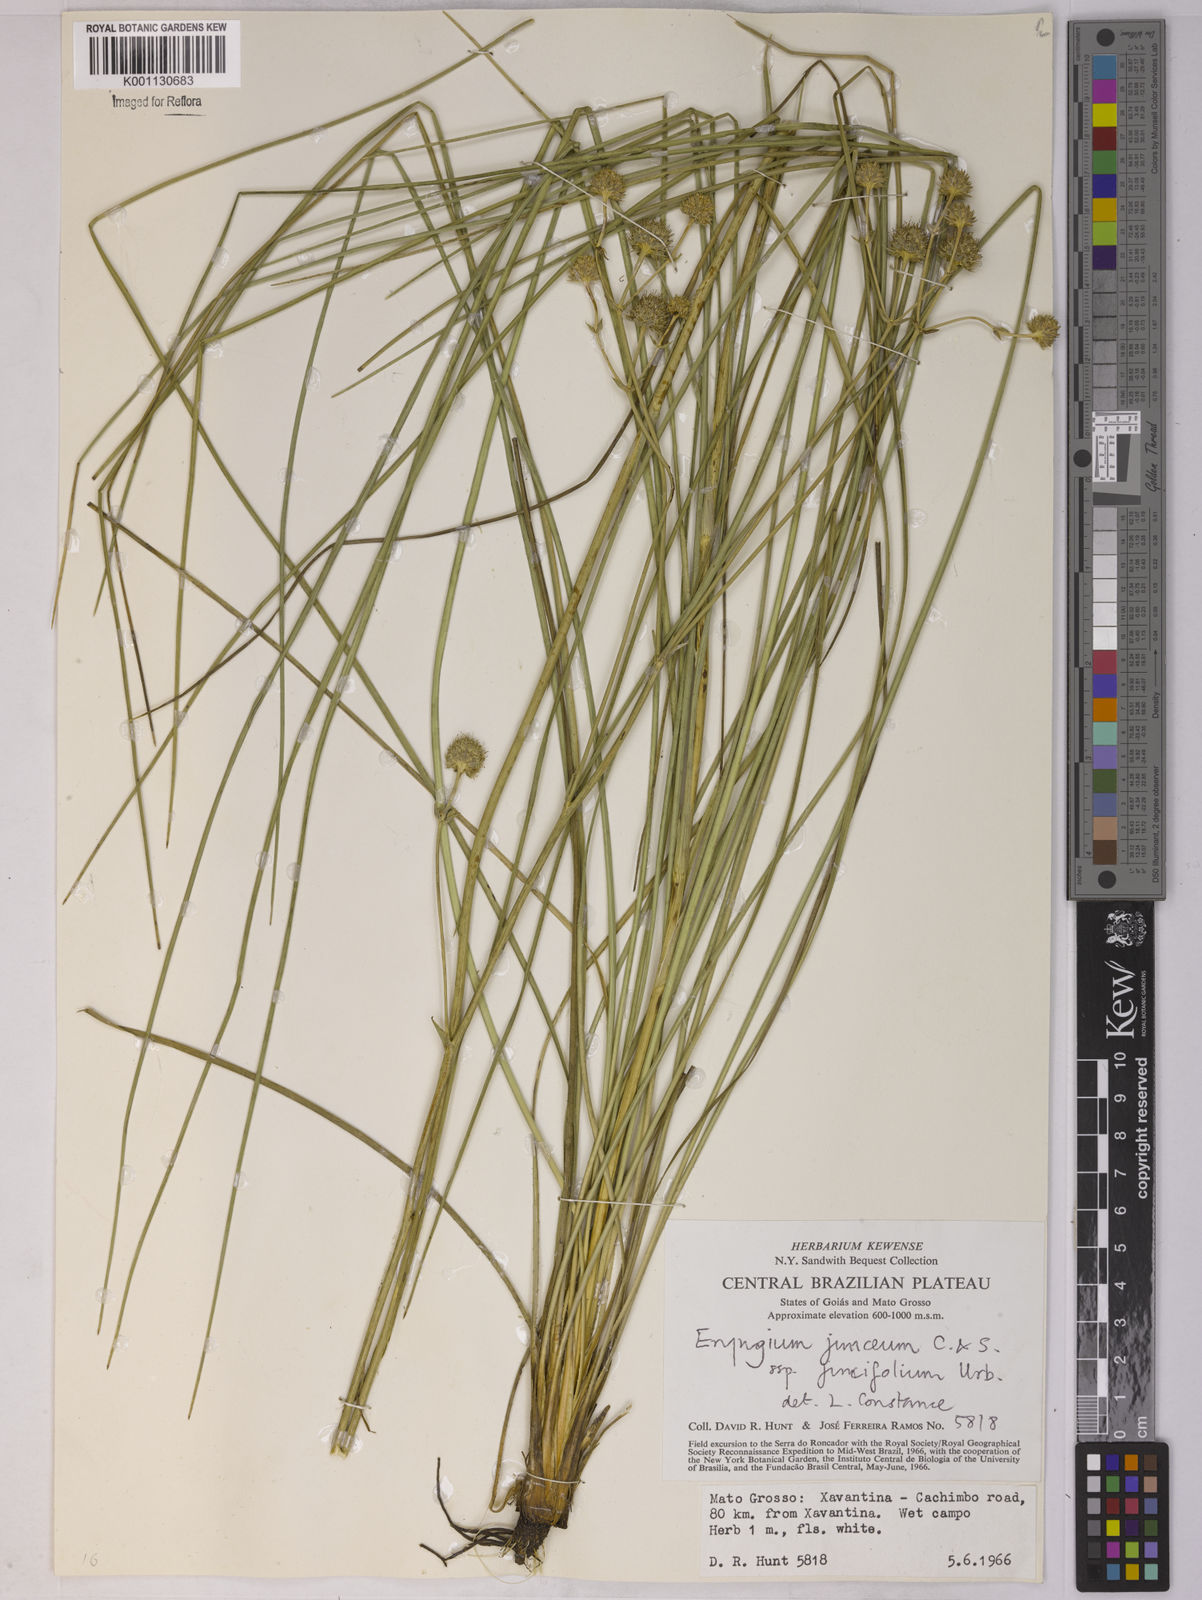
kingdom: Plantae
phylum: Tracheophyta
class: Magnoliopsida
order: Apiales
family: Apiaceae
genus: Eryngium
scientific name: Eryngium juncifolium
